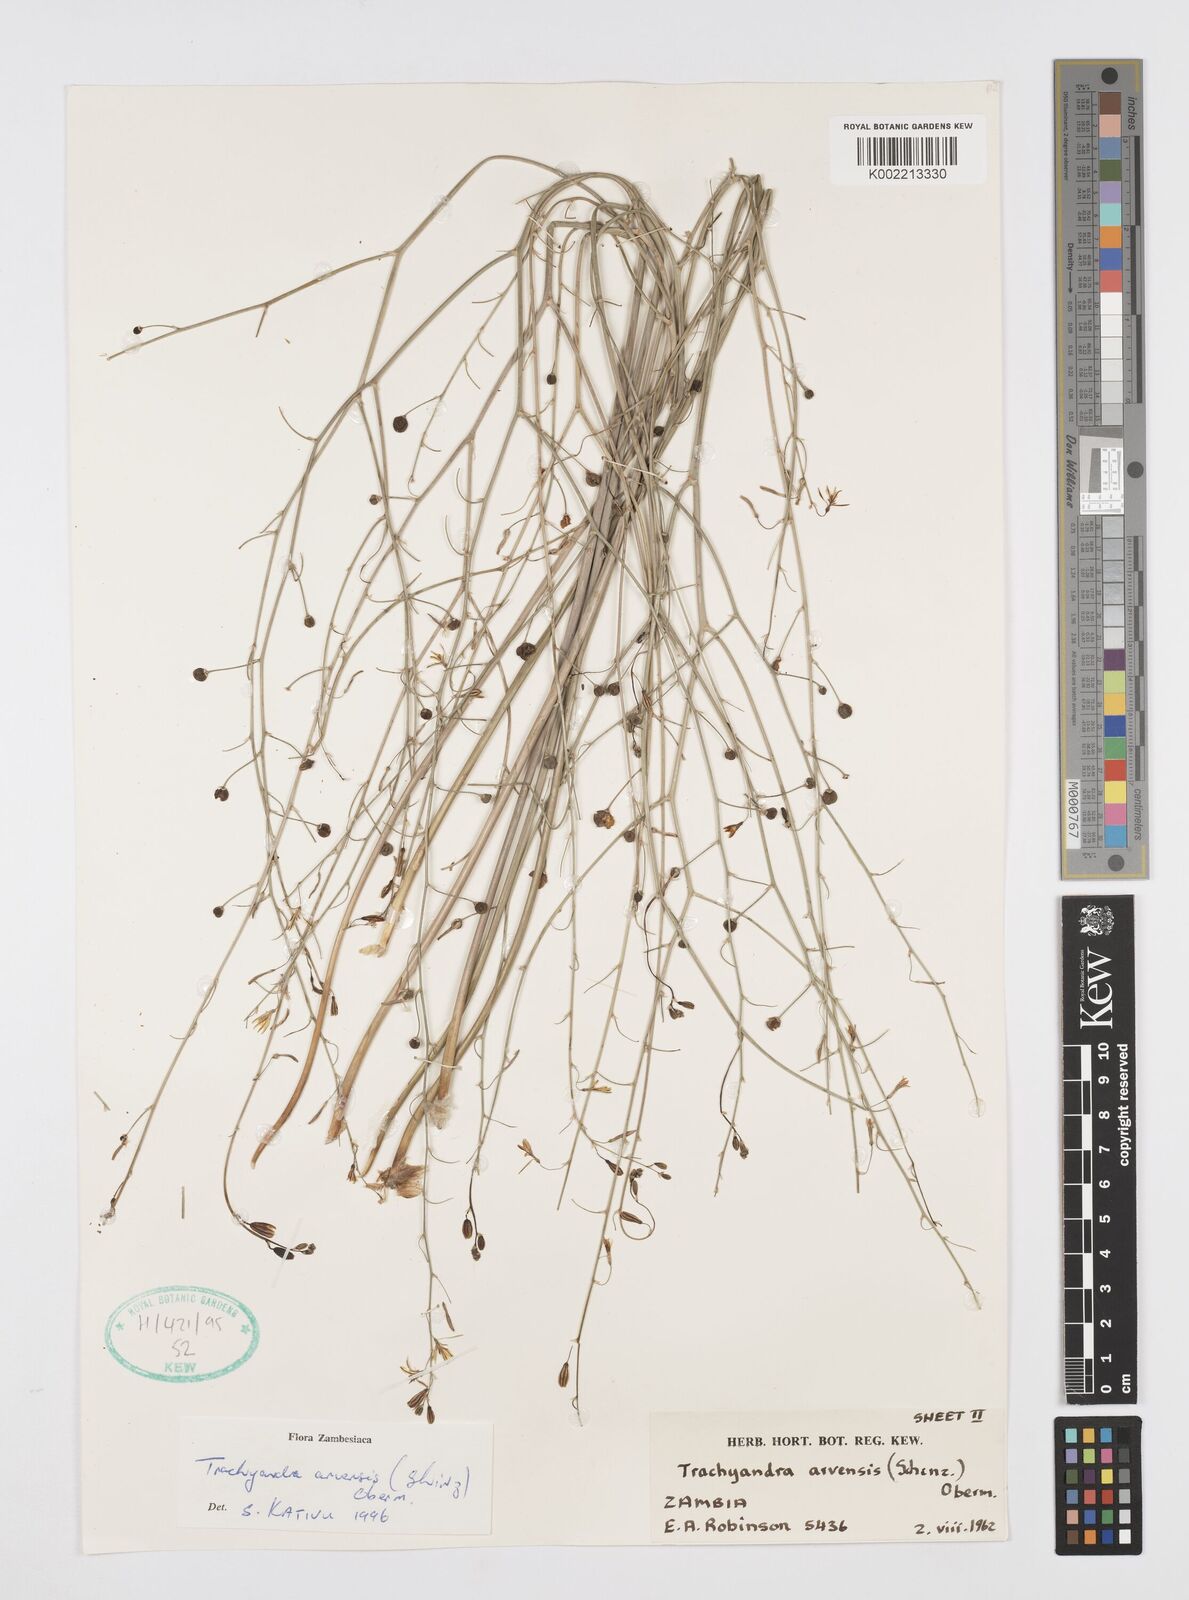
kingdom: Plantae
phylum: Tracheophyta
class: Liliopsida
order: Asparagales
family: Asphodelaceae
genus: Trachyandra
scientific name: Trachyandra arvensis
